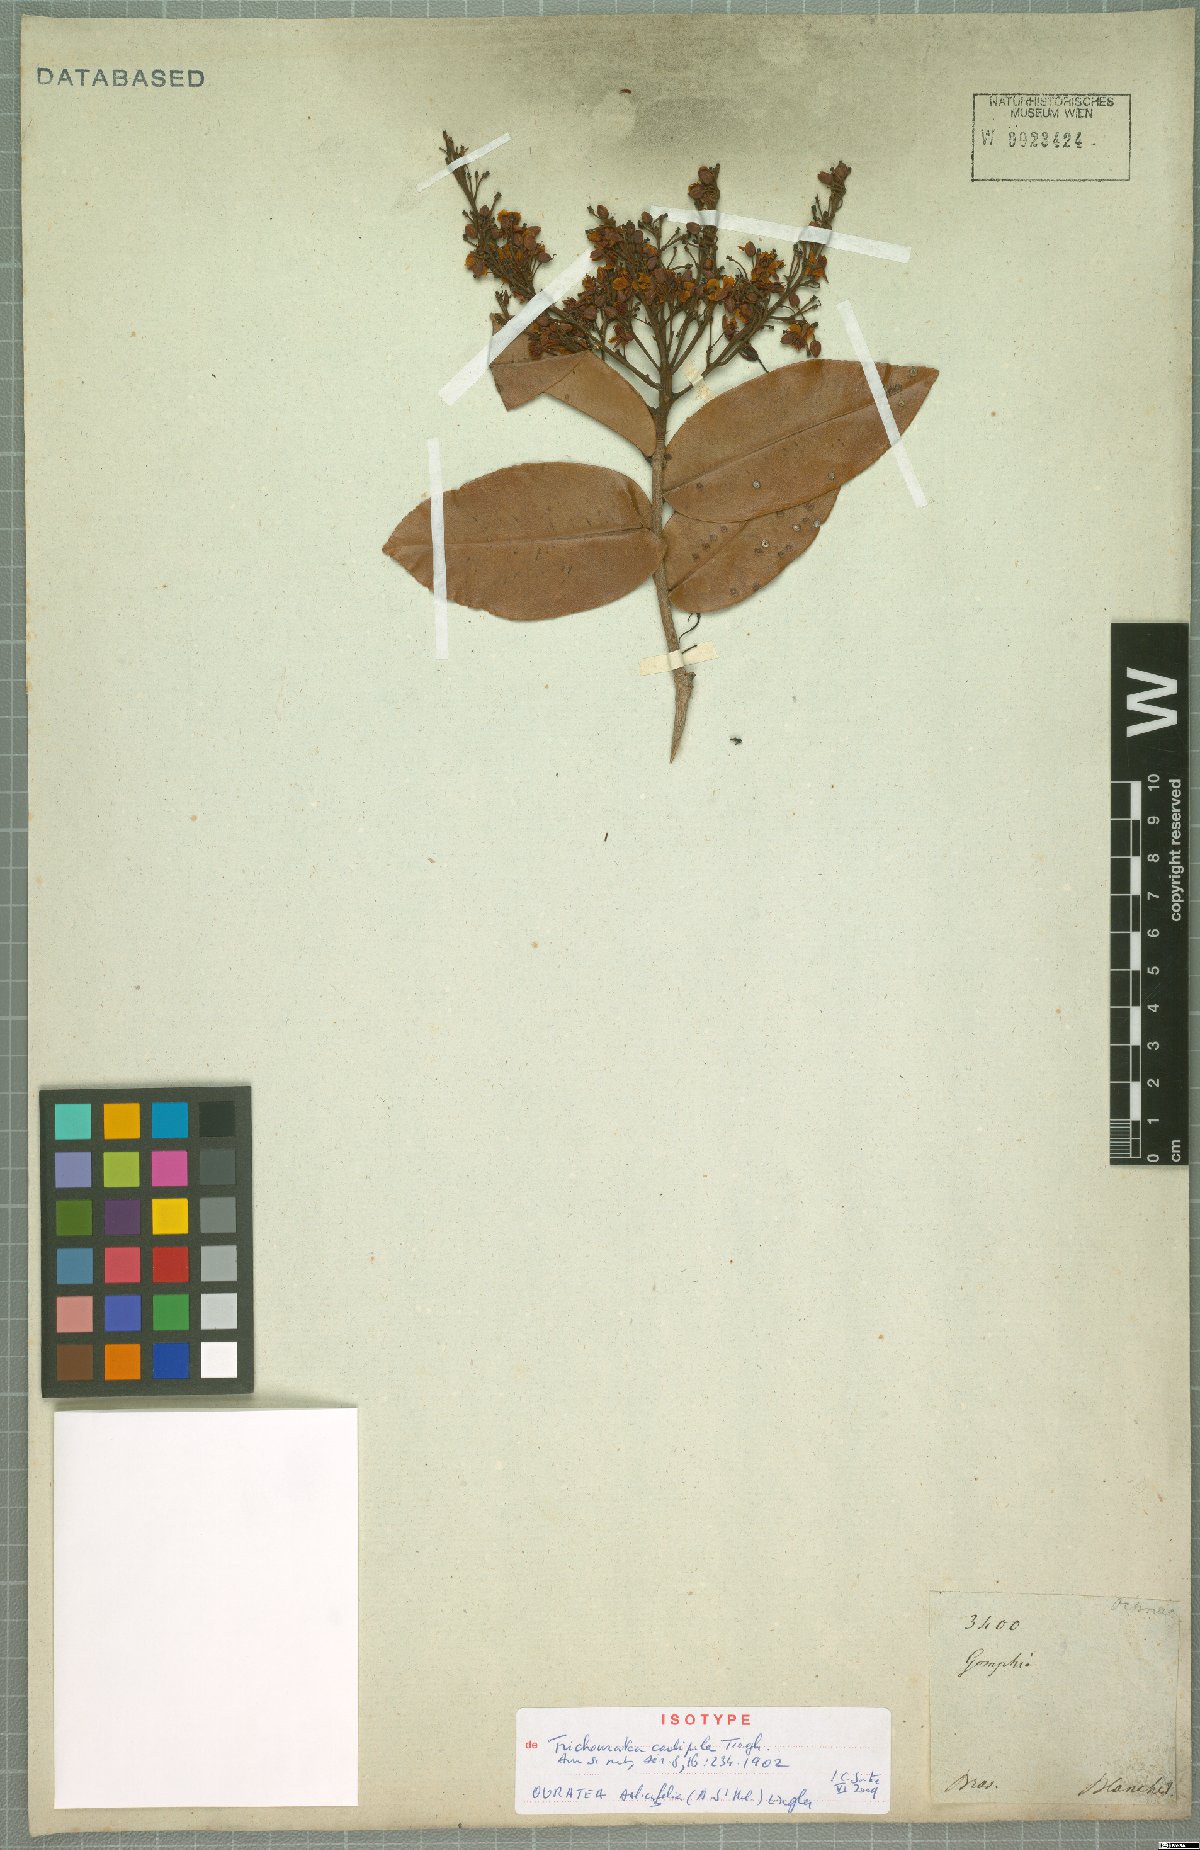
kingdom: Plantae
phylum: Tracheophyta
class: Magnoliopsida
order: Malpighiales
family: Ochnaceae
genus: Ouratea
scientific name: Ouratea salicifolia
